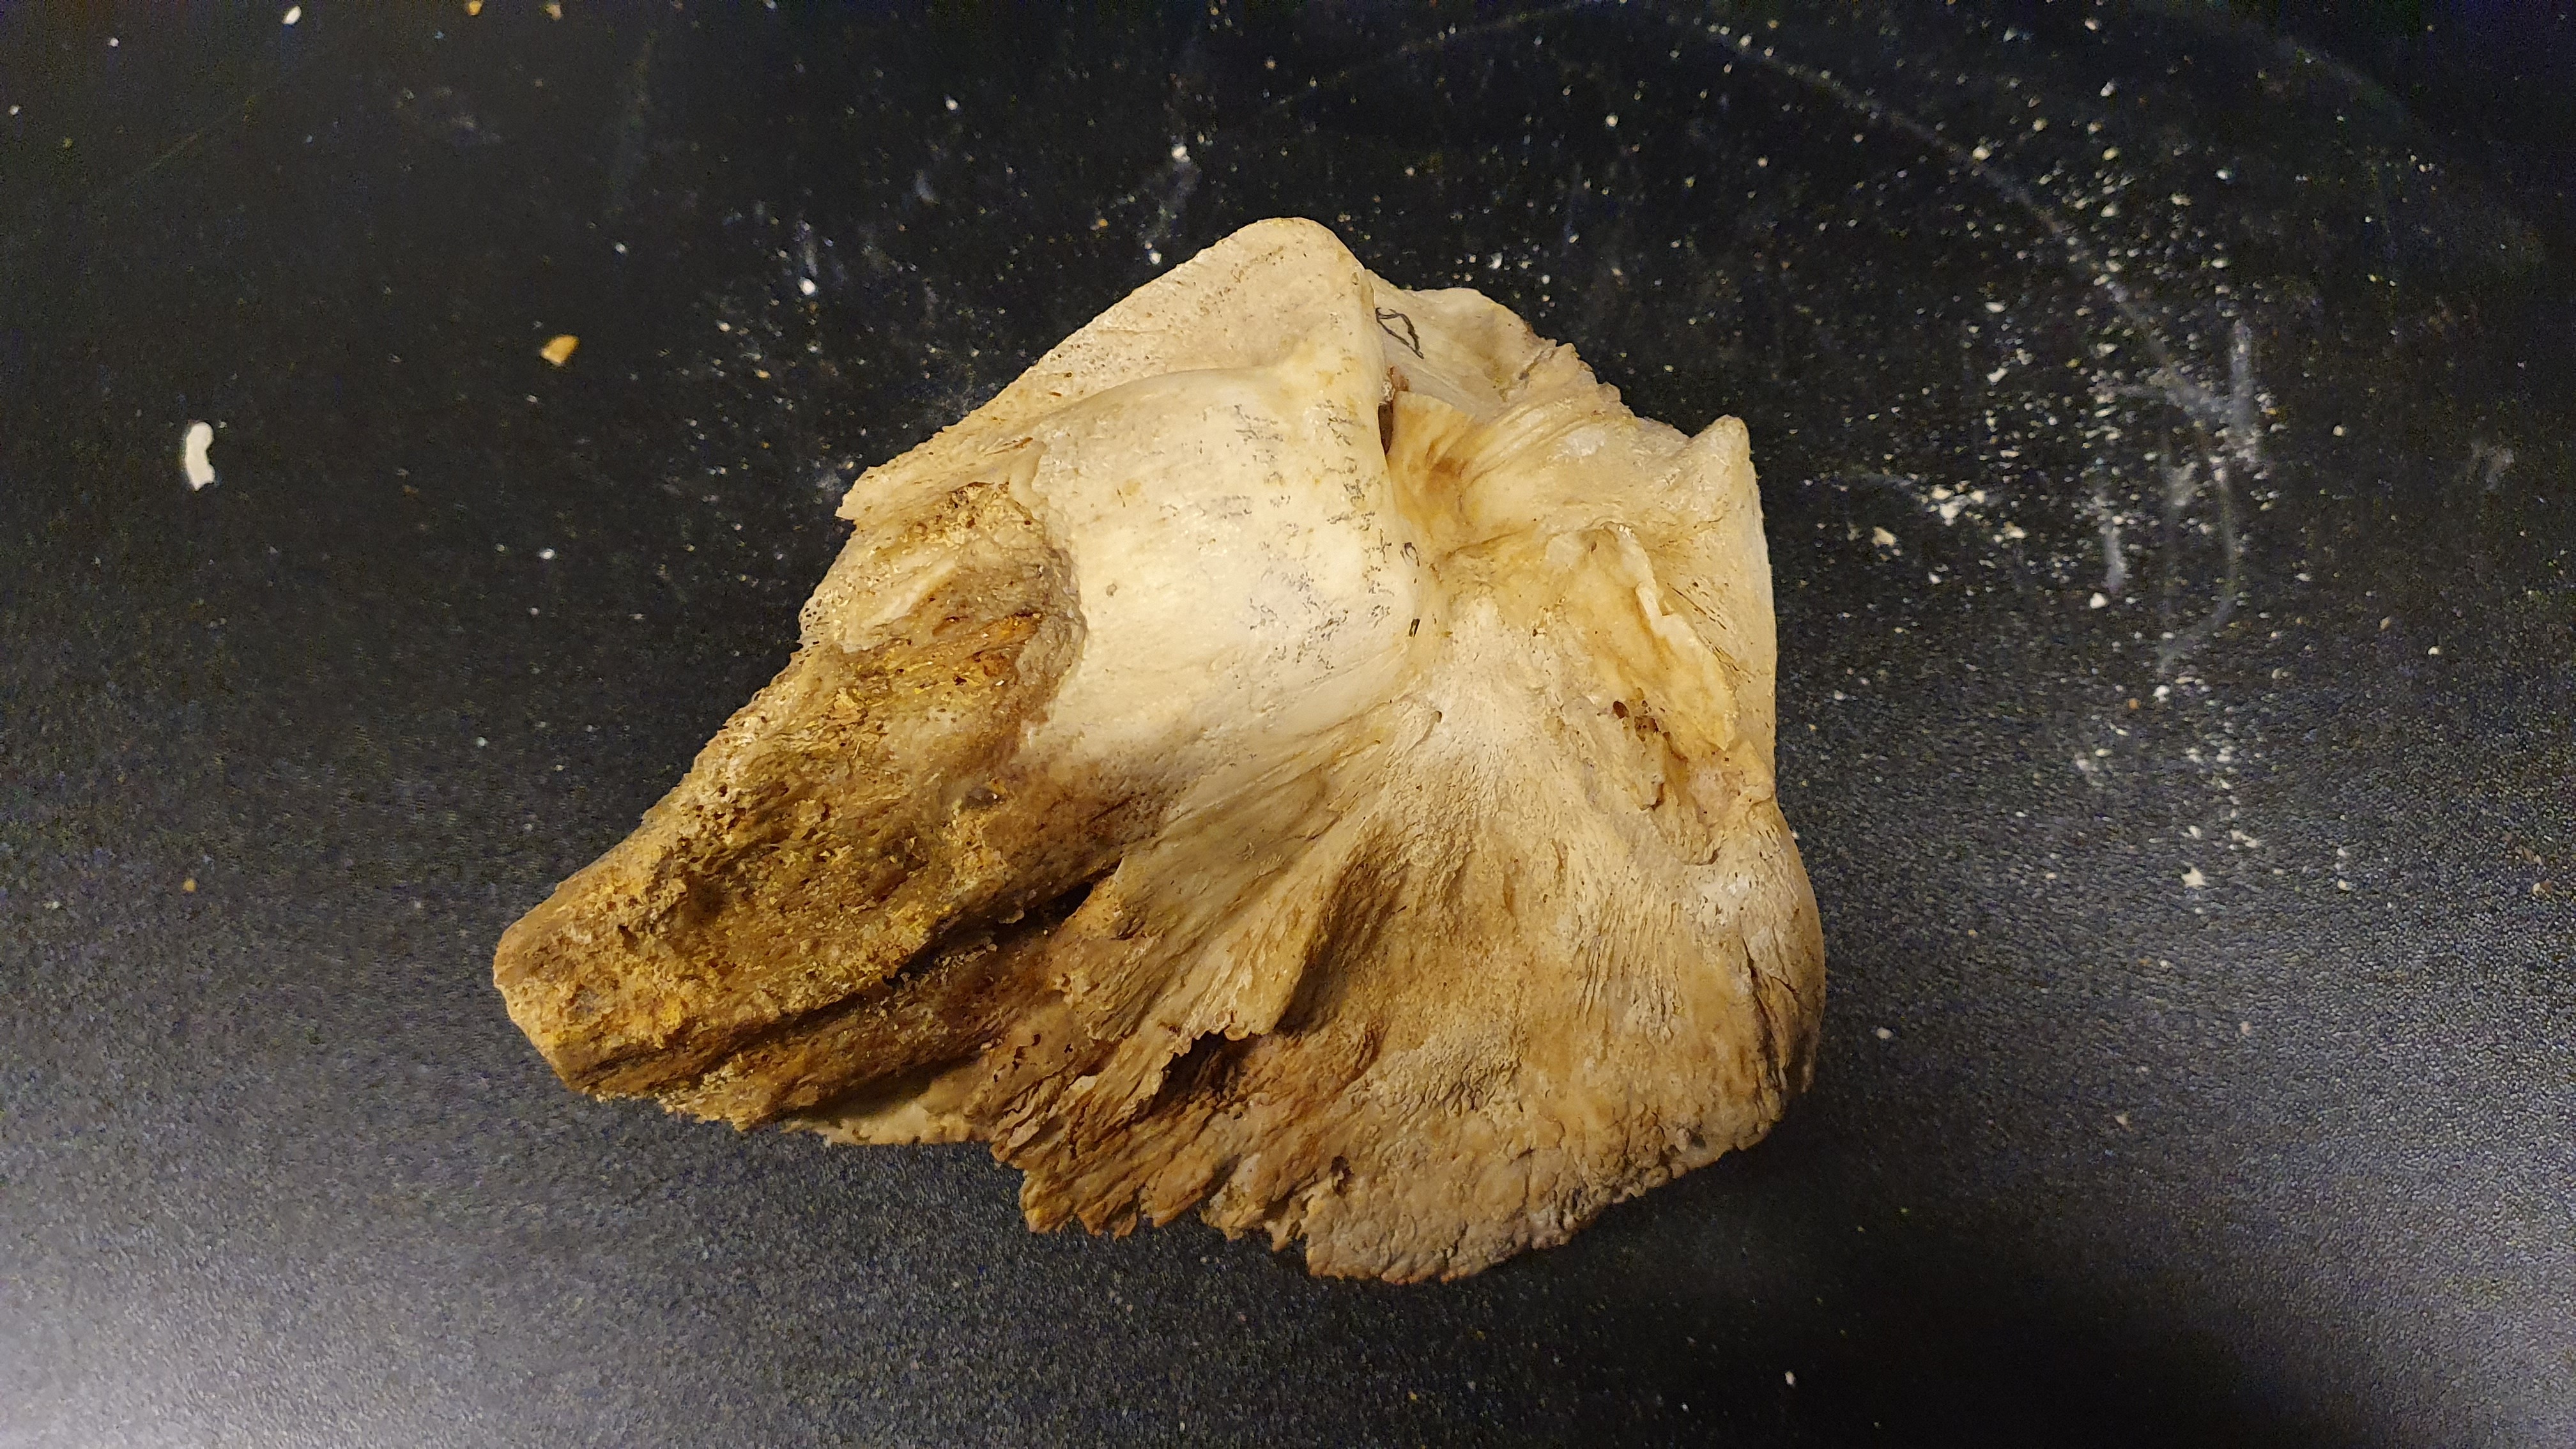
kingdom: Animalia
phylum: Chordata
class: Mammalia
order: Cetacea
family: Balaenopteridae
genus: Megaptera
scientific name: Megaptera novaeangliae
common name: Humpback whale
